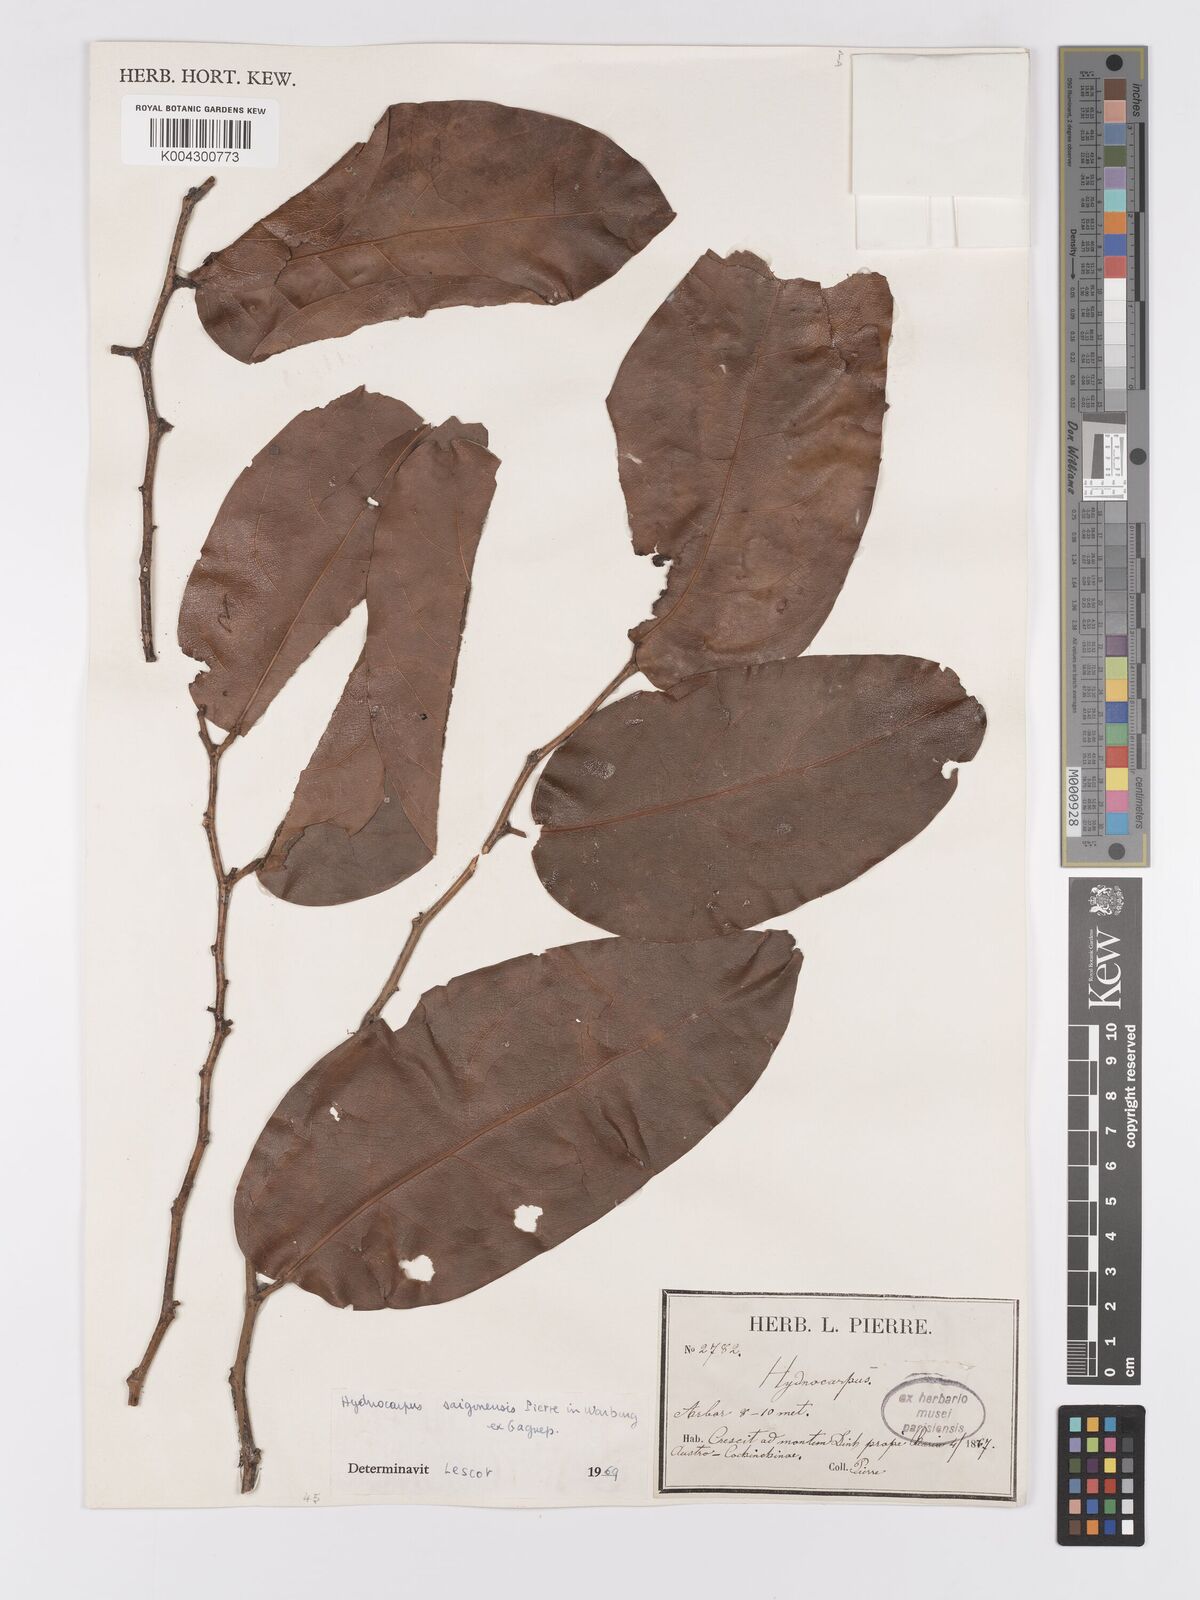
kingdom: Plantae
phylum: Tracheophyta
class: Magnoliopsida
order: Malpighiales
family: Achariaceae
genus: Hydnocarpus
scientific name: Hydnocarpus saigonensis
